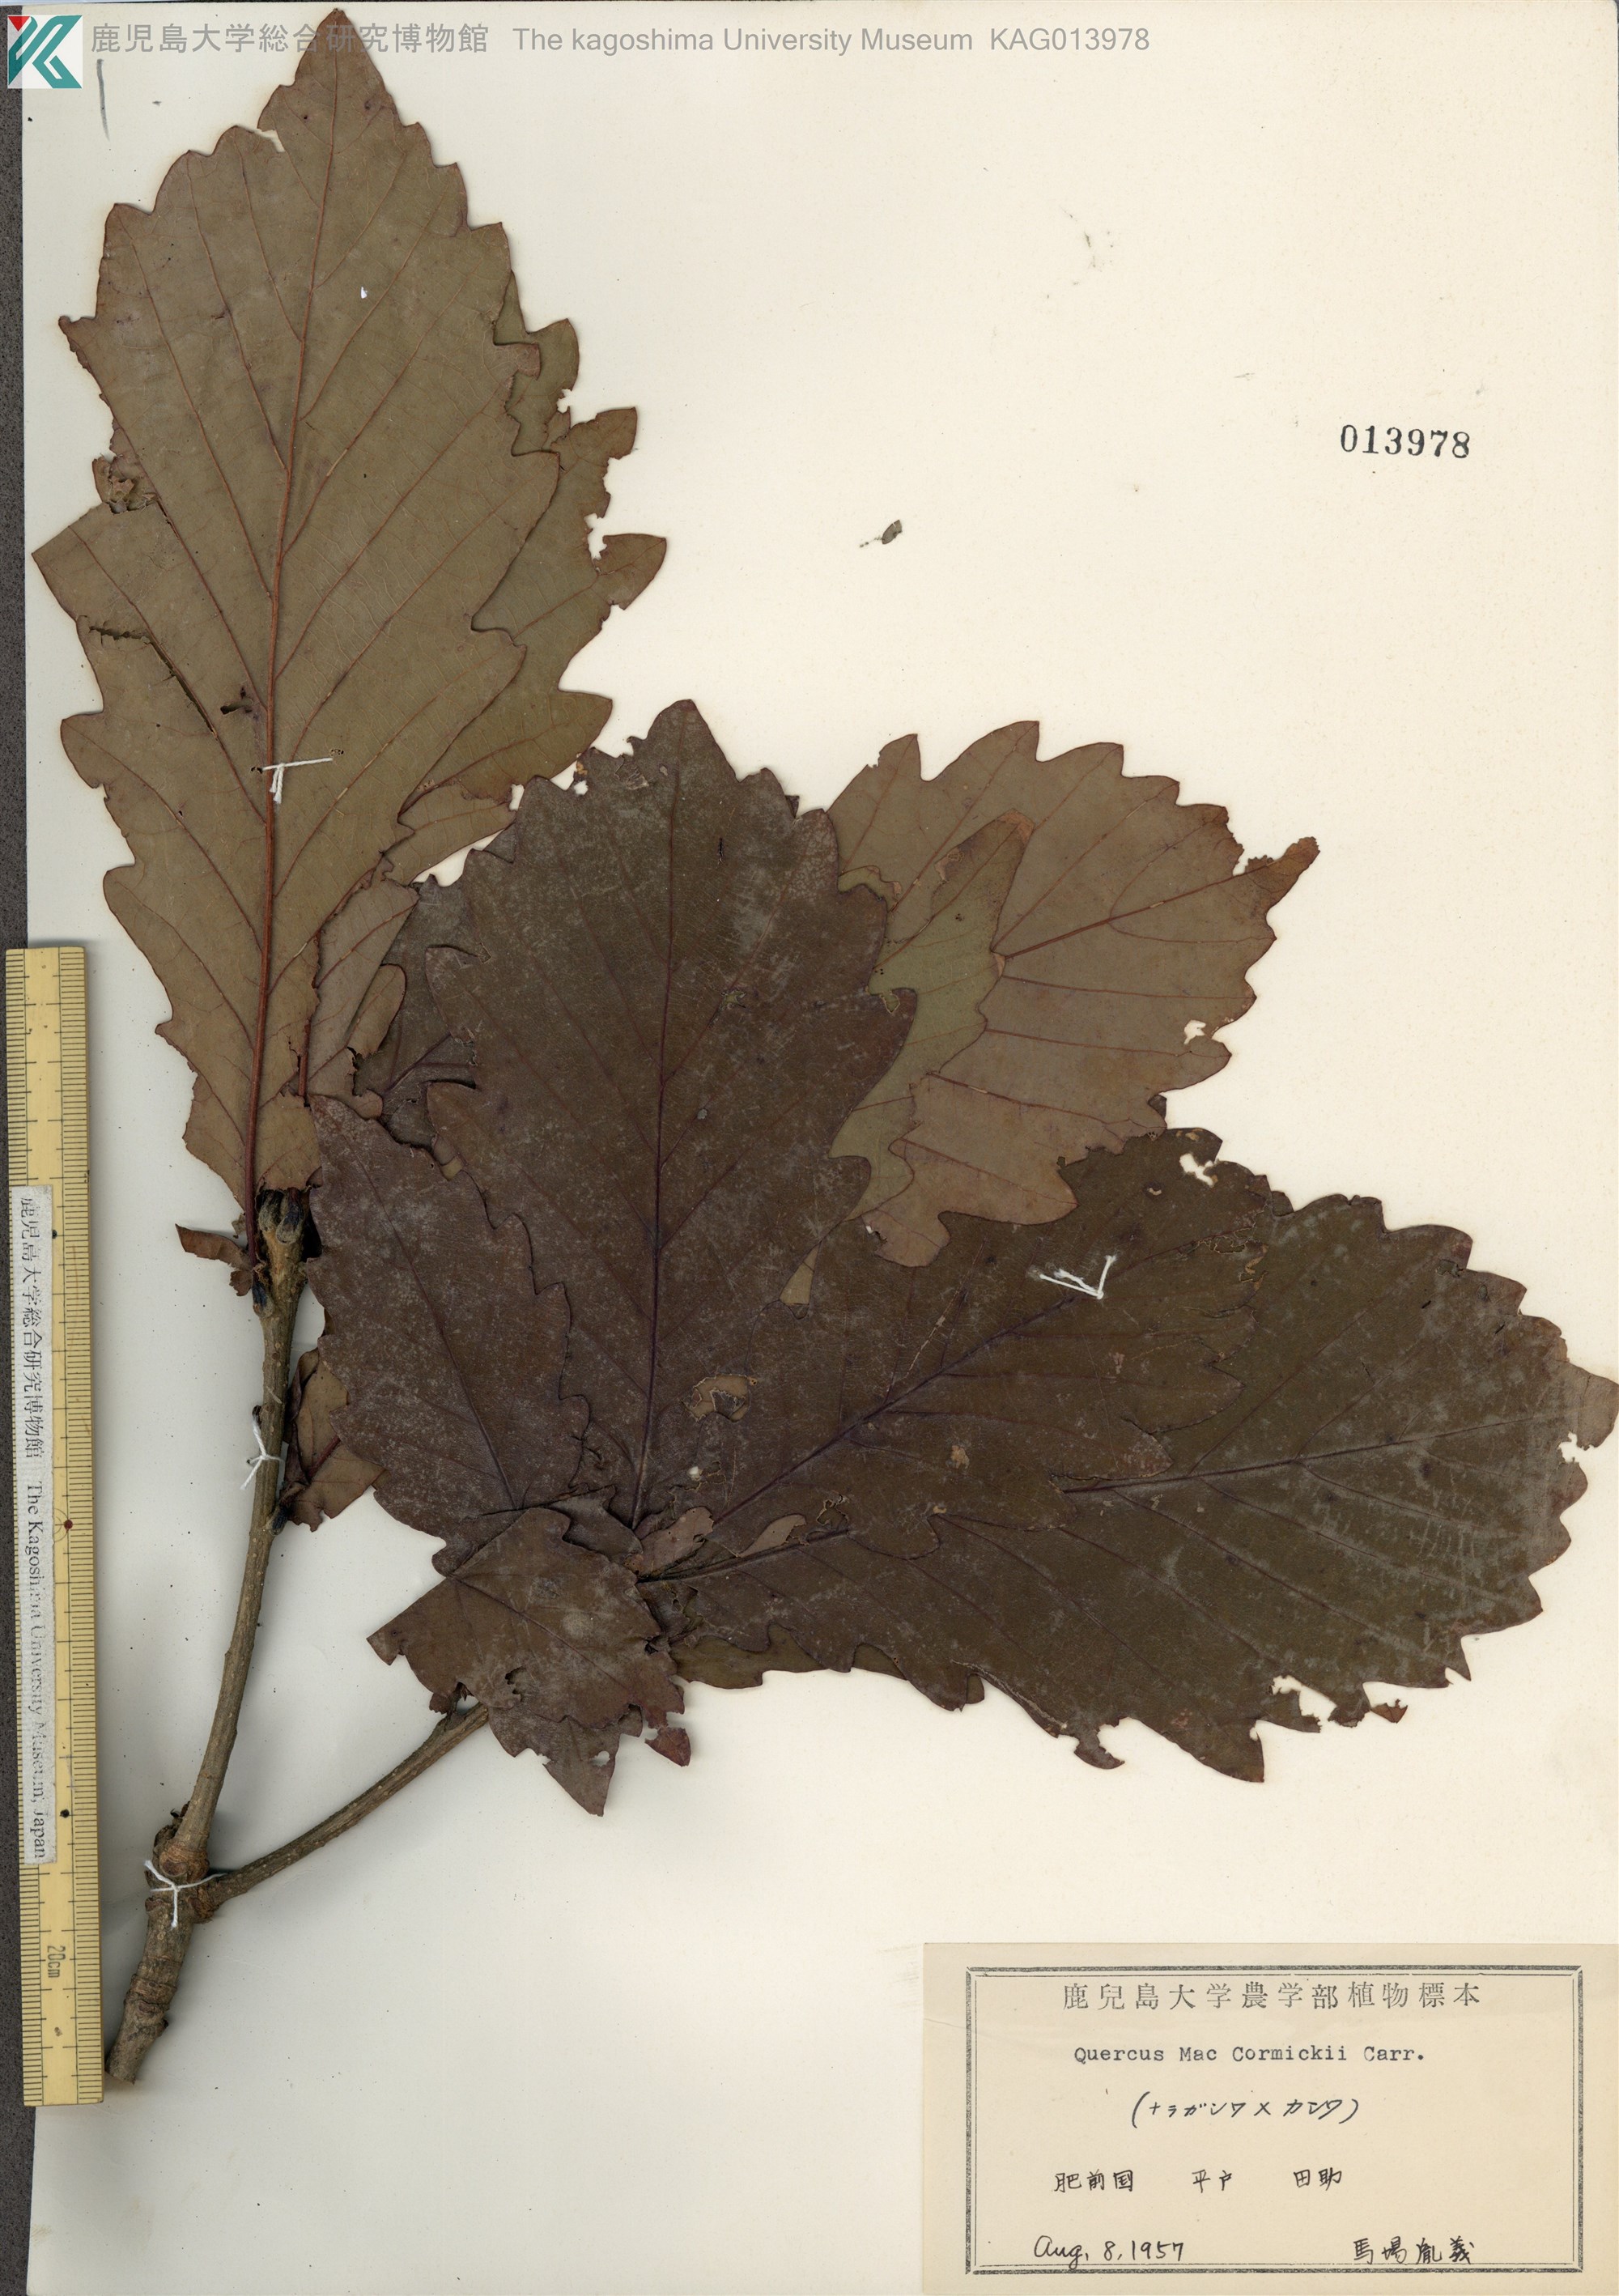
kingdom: Plantae
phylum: Tracheophyta
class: Magnoliopsida
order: Fagales
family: Fagaceae
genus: Quercus
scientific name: Quercus
